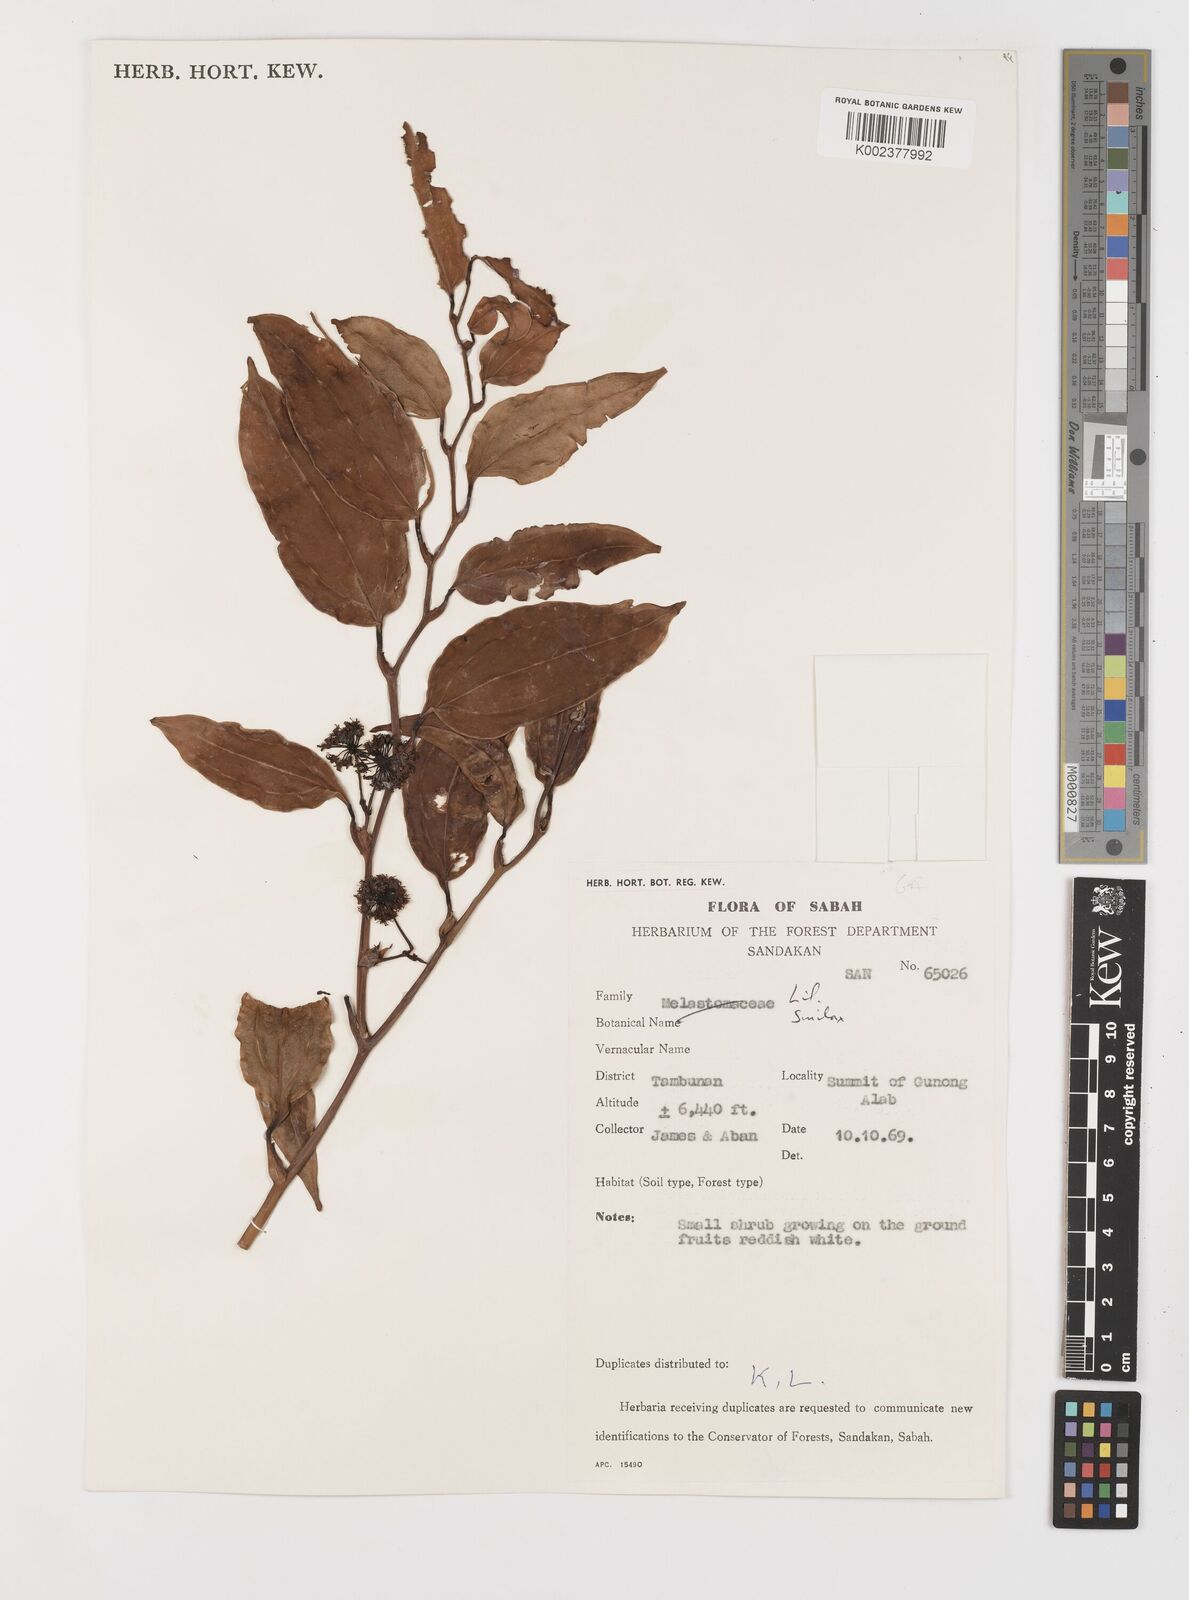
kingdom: Plantae
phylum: Tracheophyta
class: Liliopsida
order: Liliales
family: Smilacaceae
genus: Smilax
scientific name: Smilax
